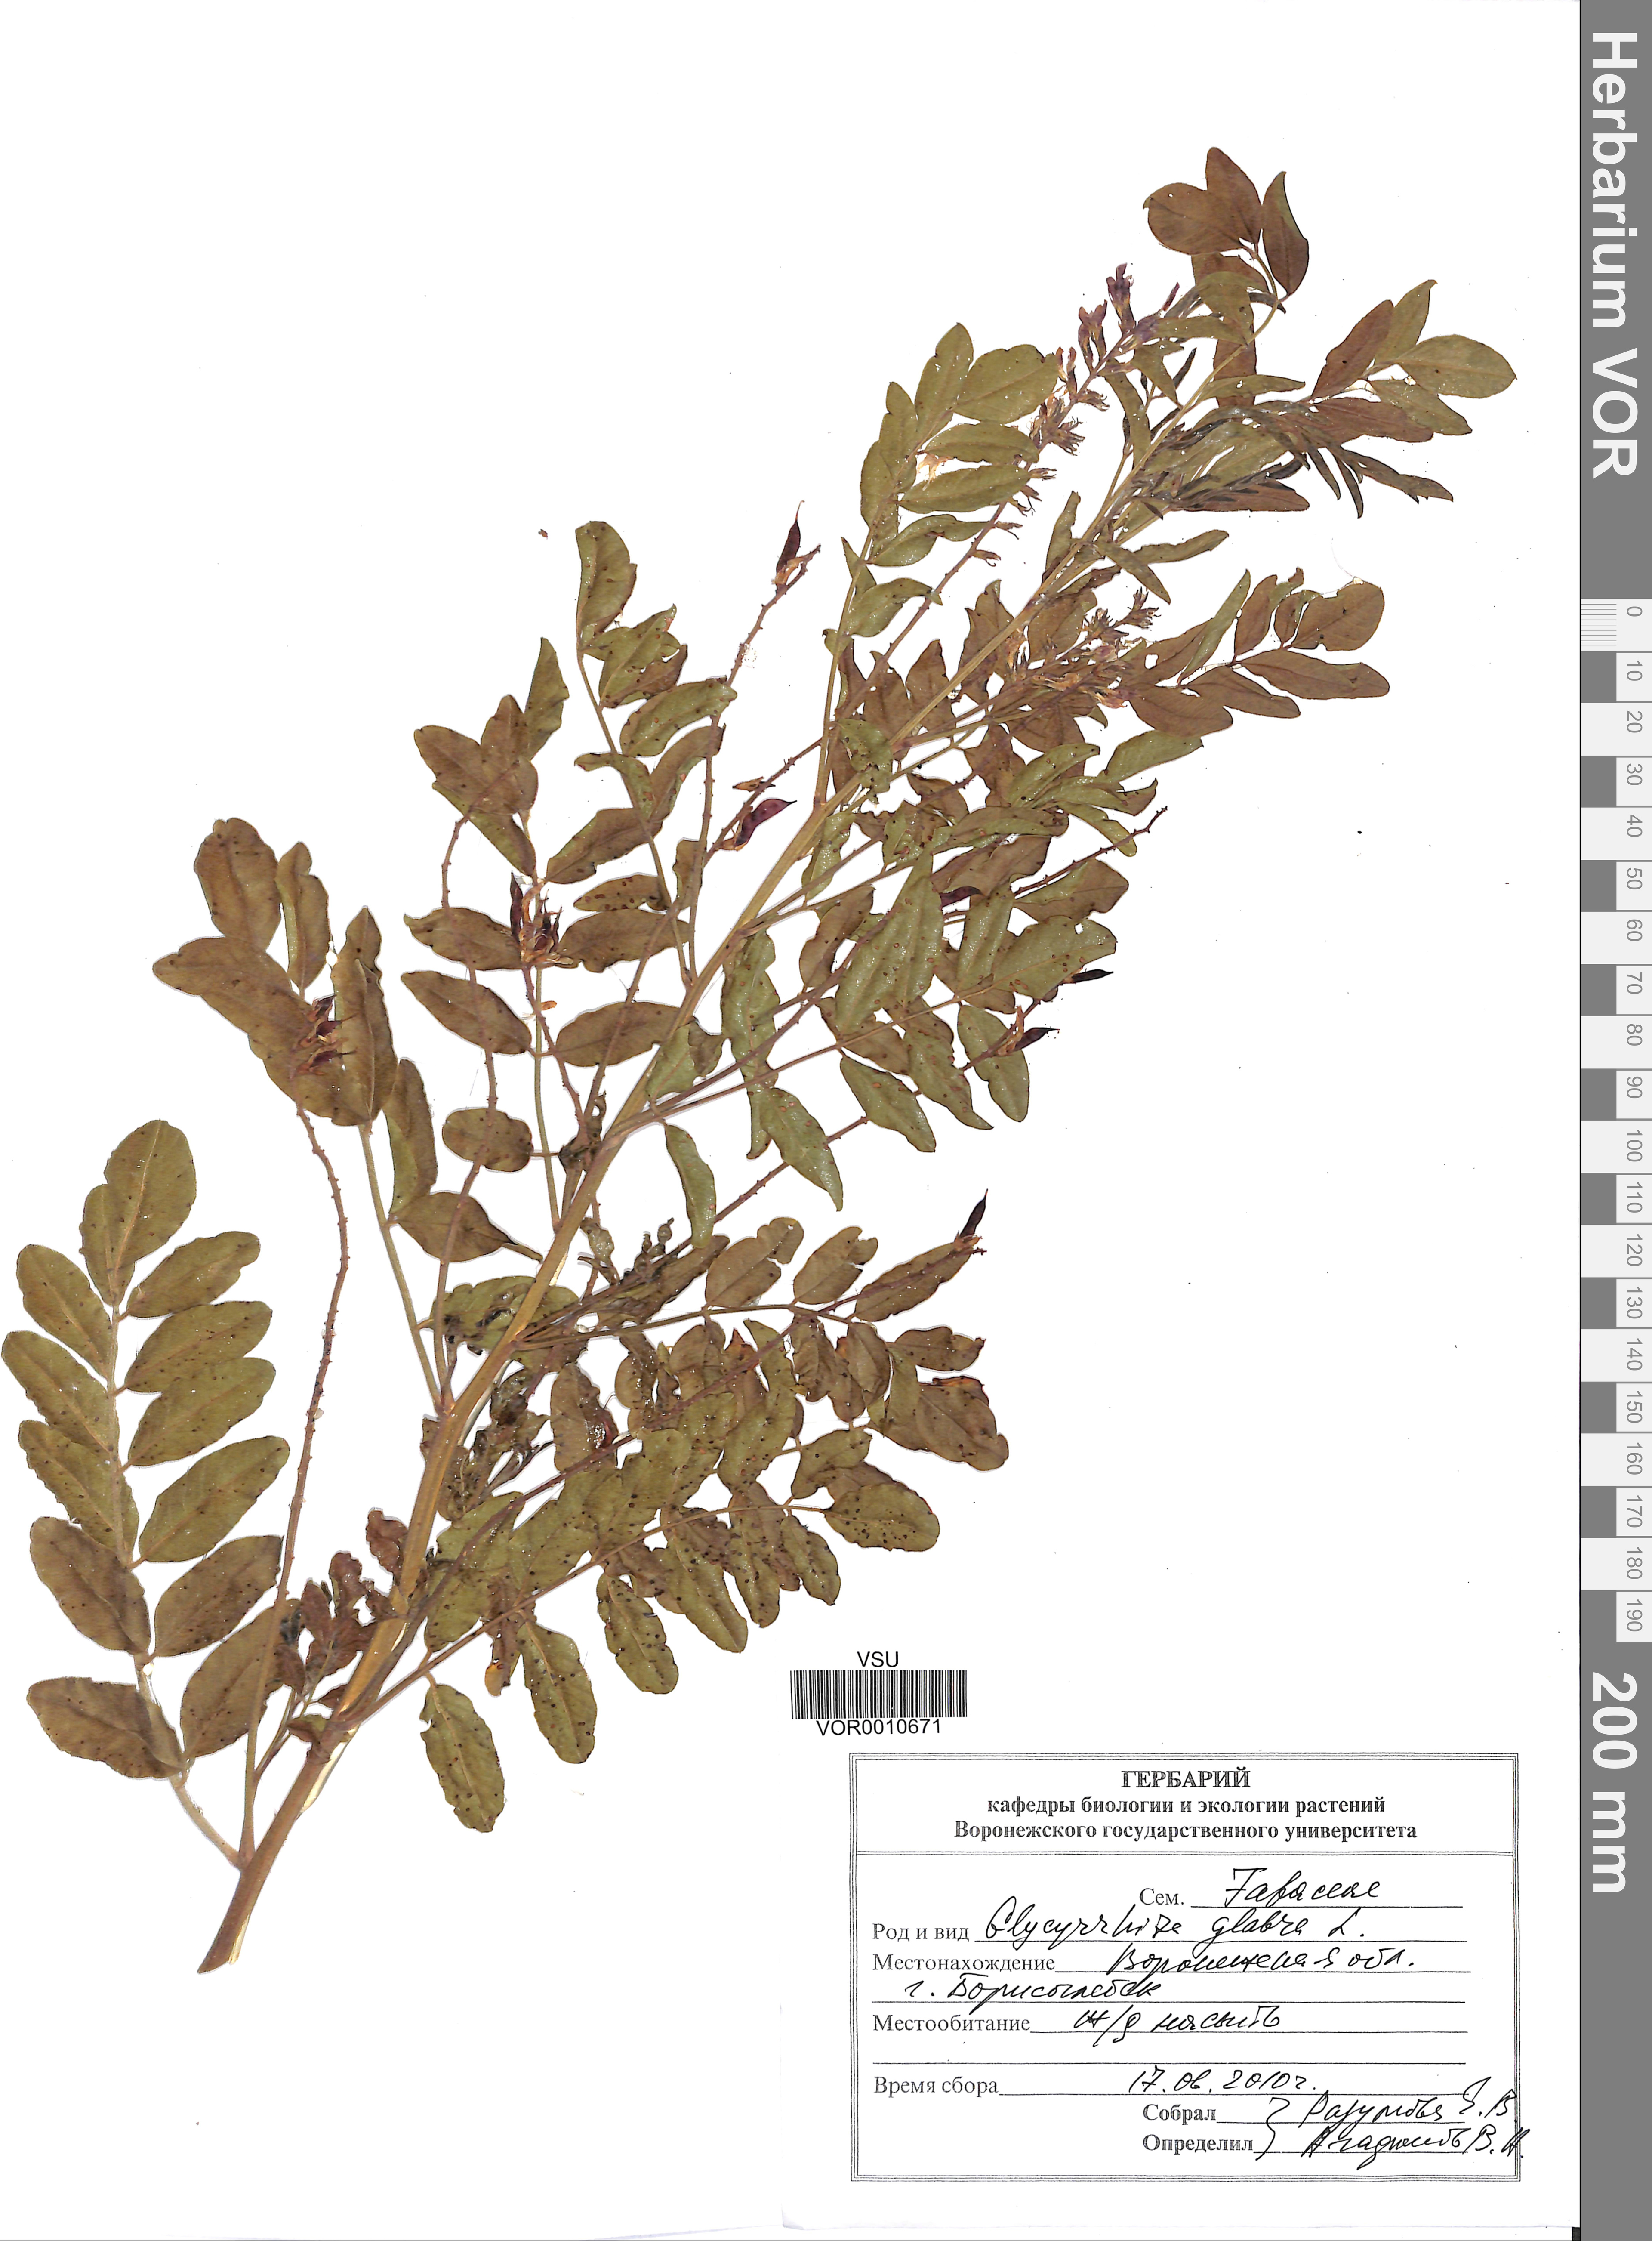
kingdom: Plantae
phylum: Tracheophyta
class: Magnoliopsida
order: Fabales
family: Fabaceae
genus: Glycyrrhiza
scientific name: Glycyrrhiza glabra
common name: Liquorice
